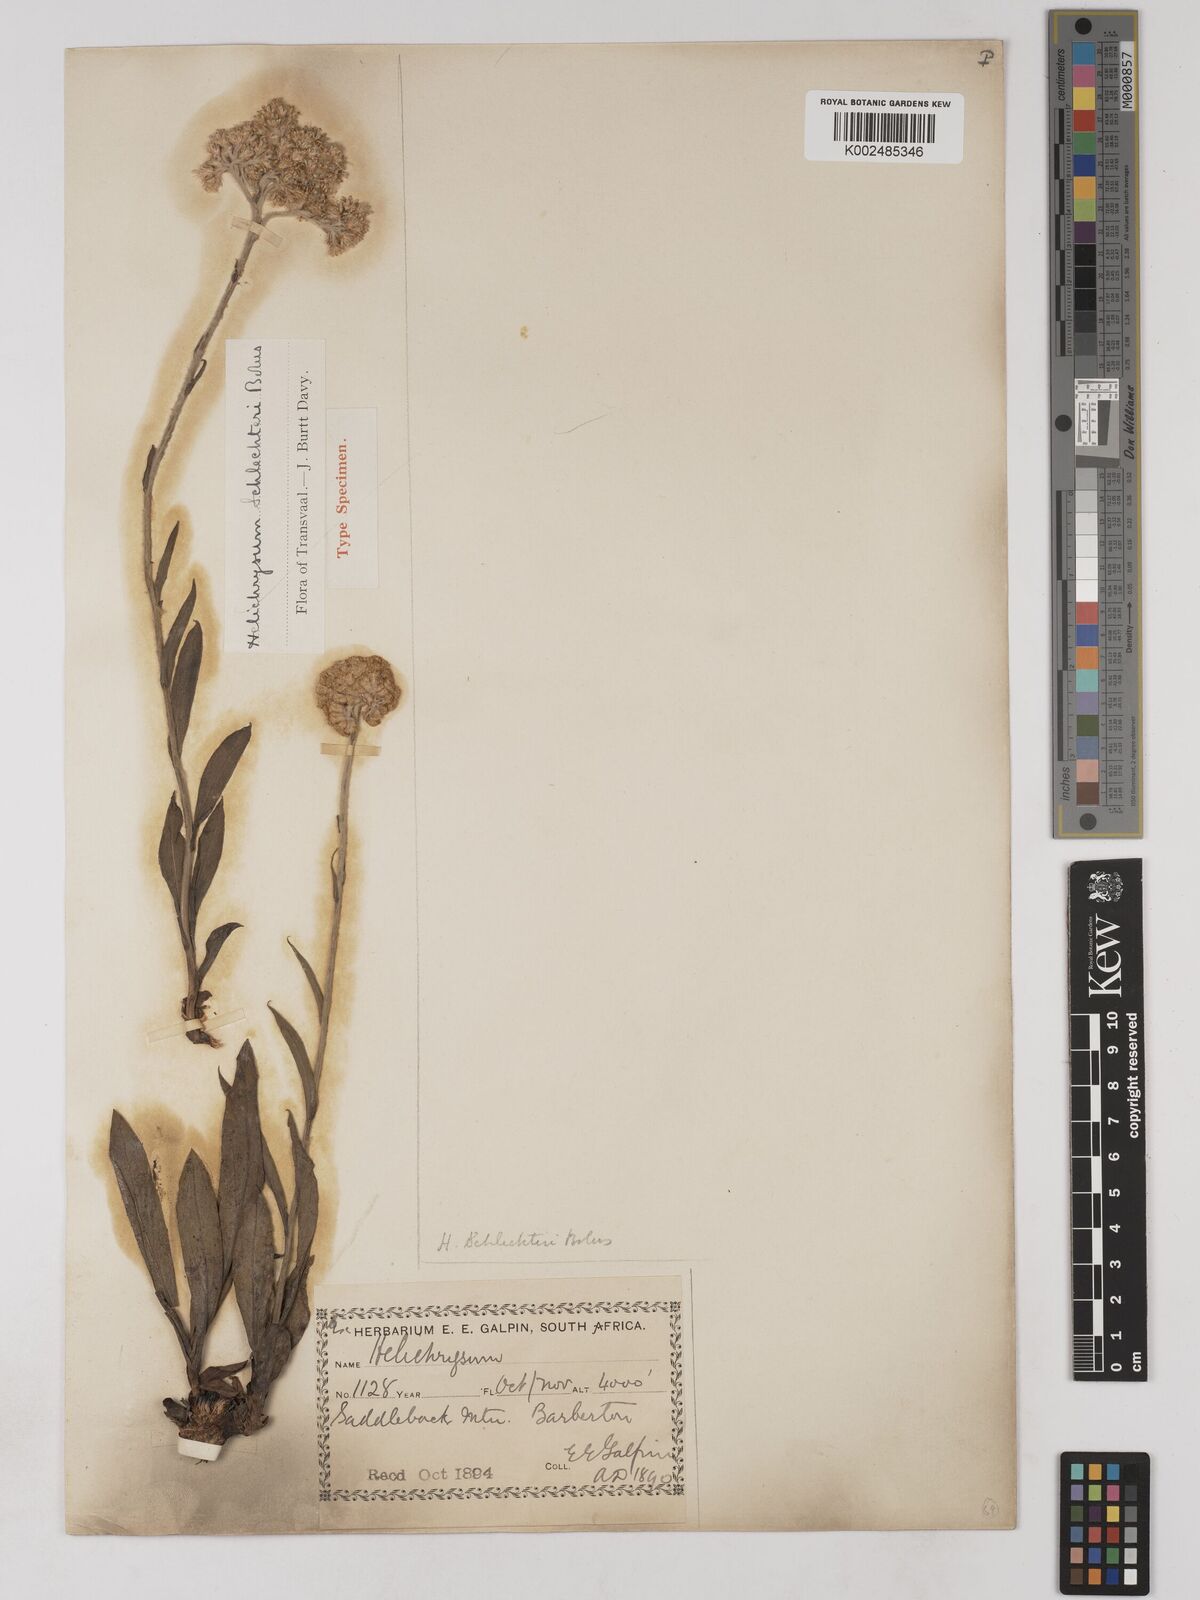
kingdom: Plantae
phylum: Tracheophyta
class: Magnoliopsida
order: Asterales
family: Asteraceae
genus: Helichrysum
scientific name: Helichrysum acutatum
